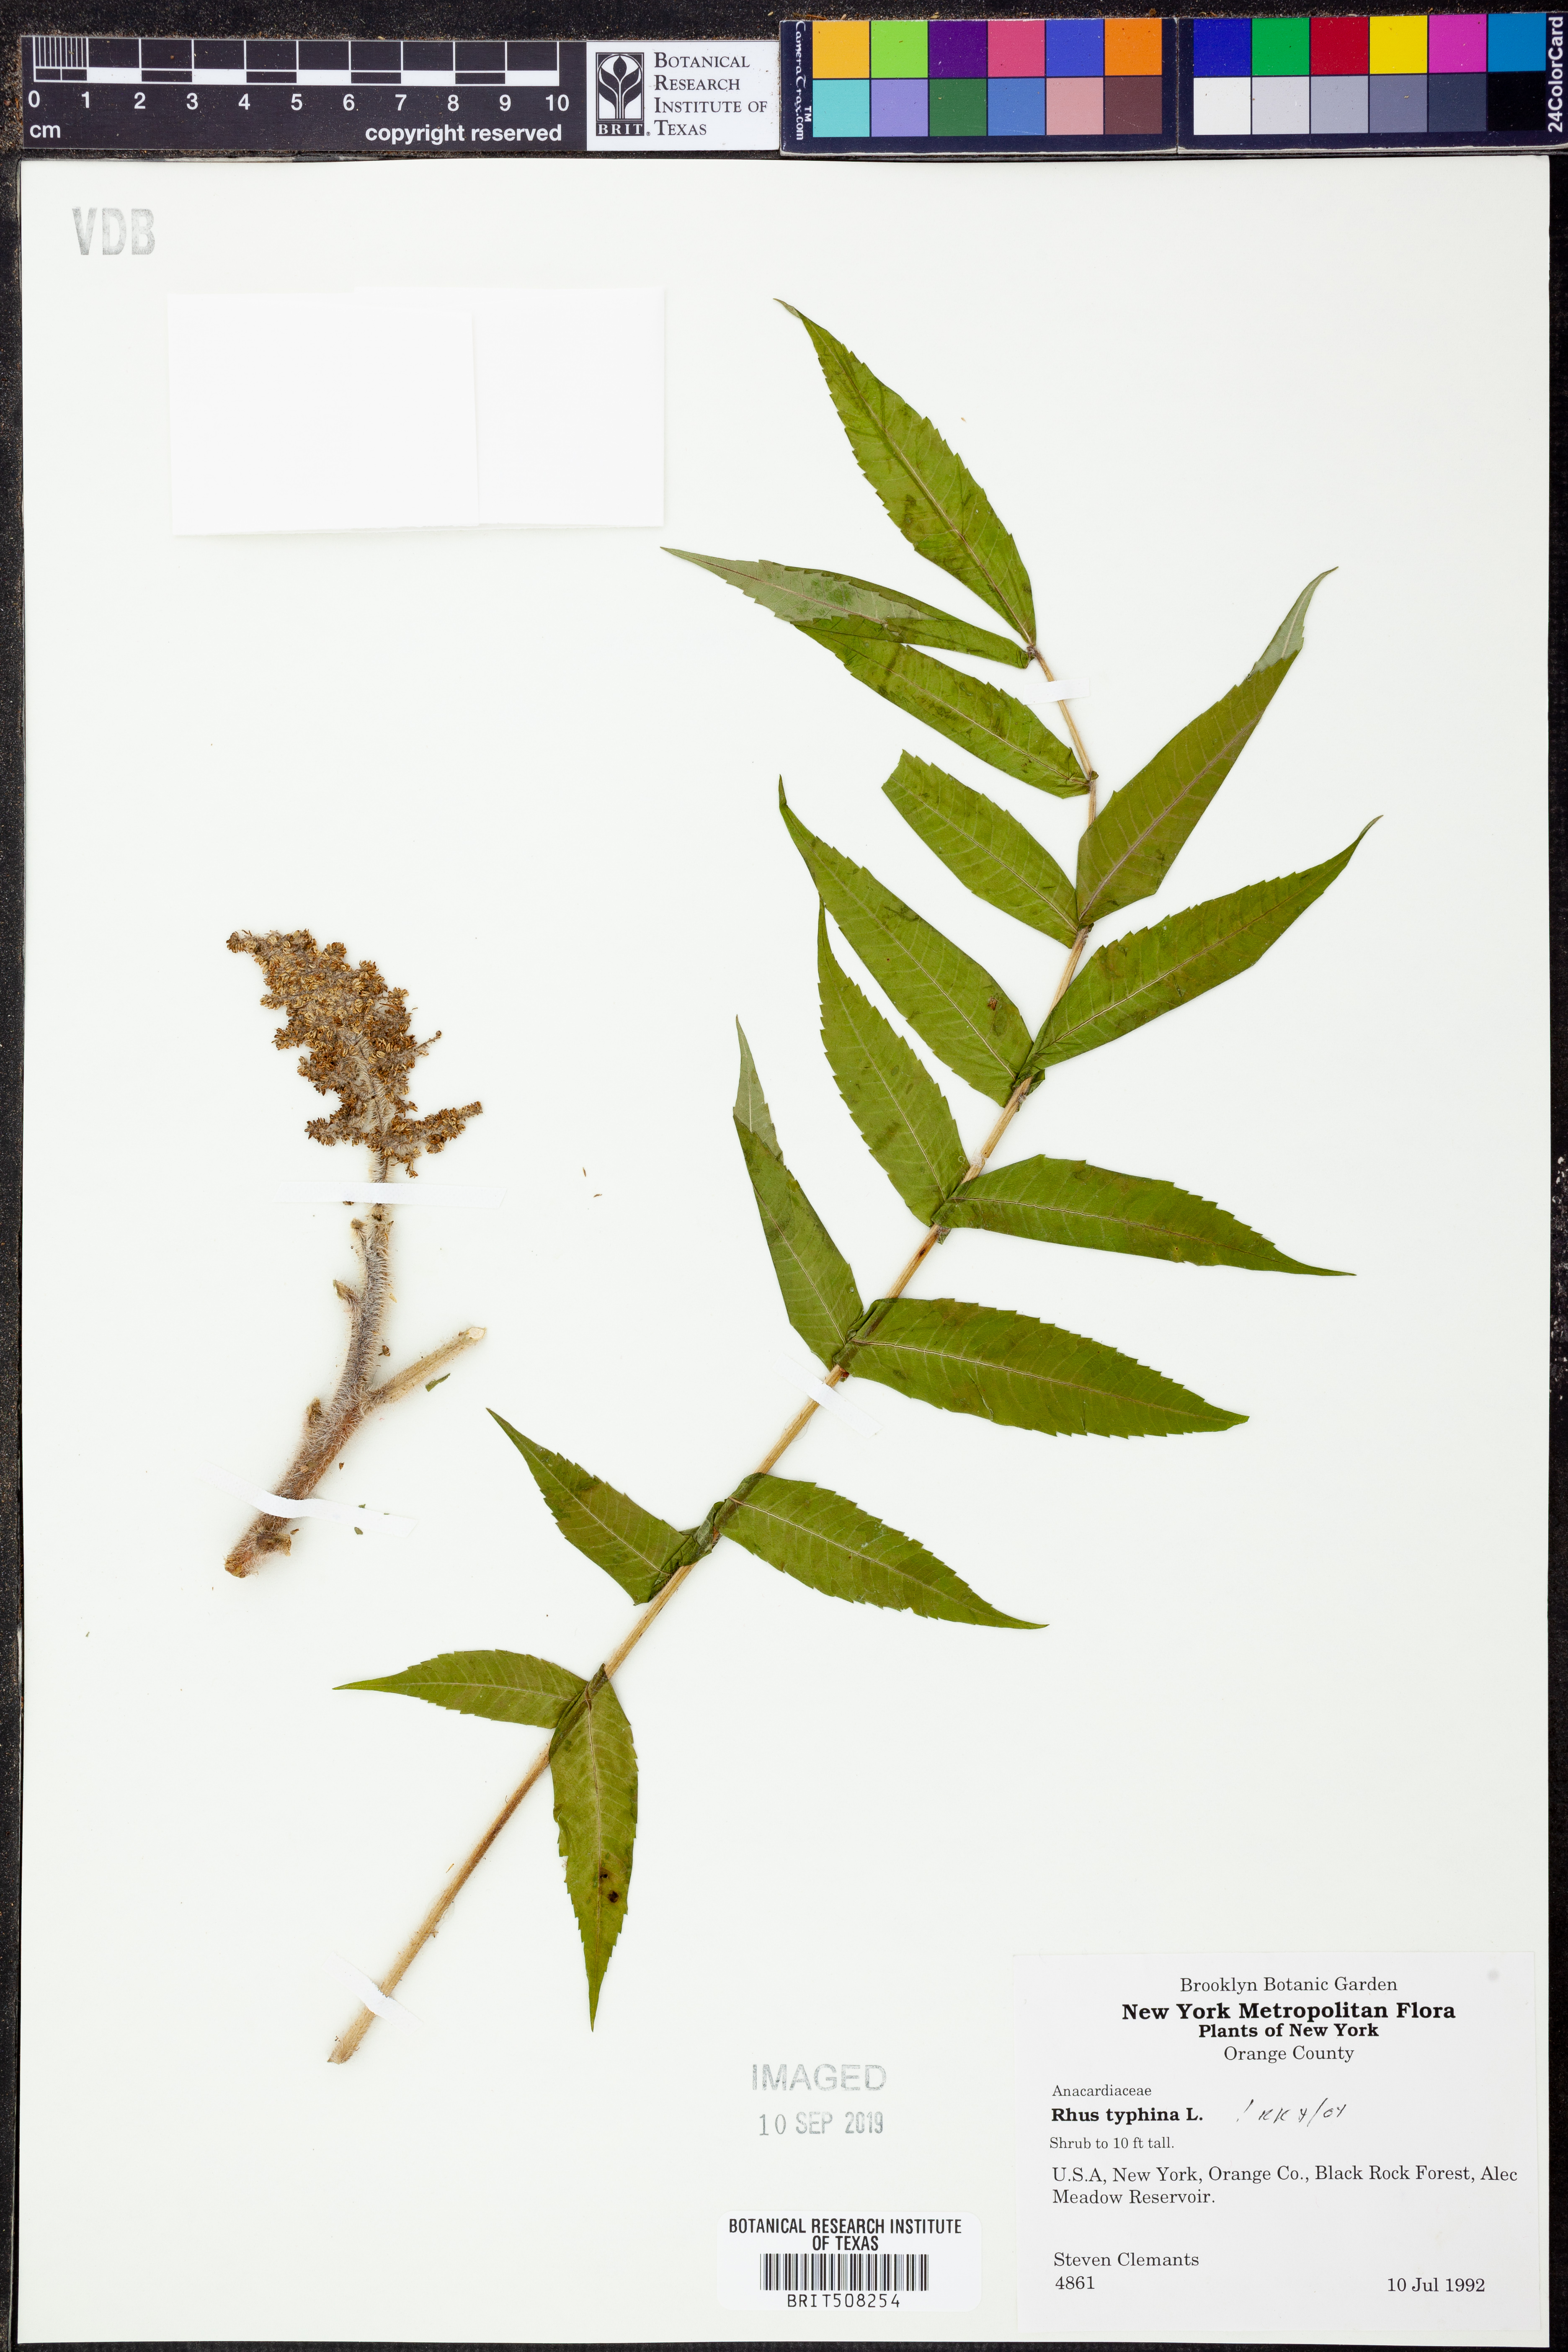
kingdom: Plantae
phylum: Tracheophyta
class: Magnoliopsida
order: Sapindales
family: Anacardiaceae
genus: Rhus
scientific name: Rhus typhina
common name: Staghorn sumac
